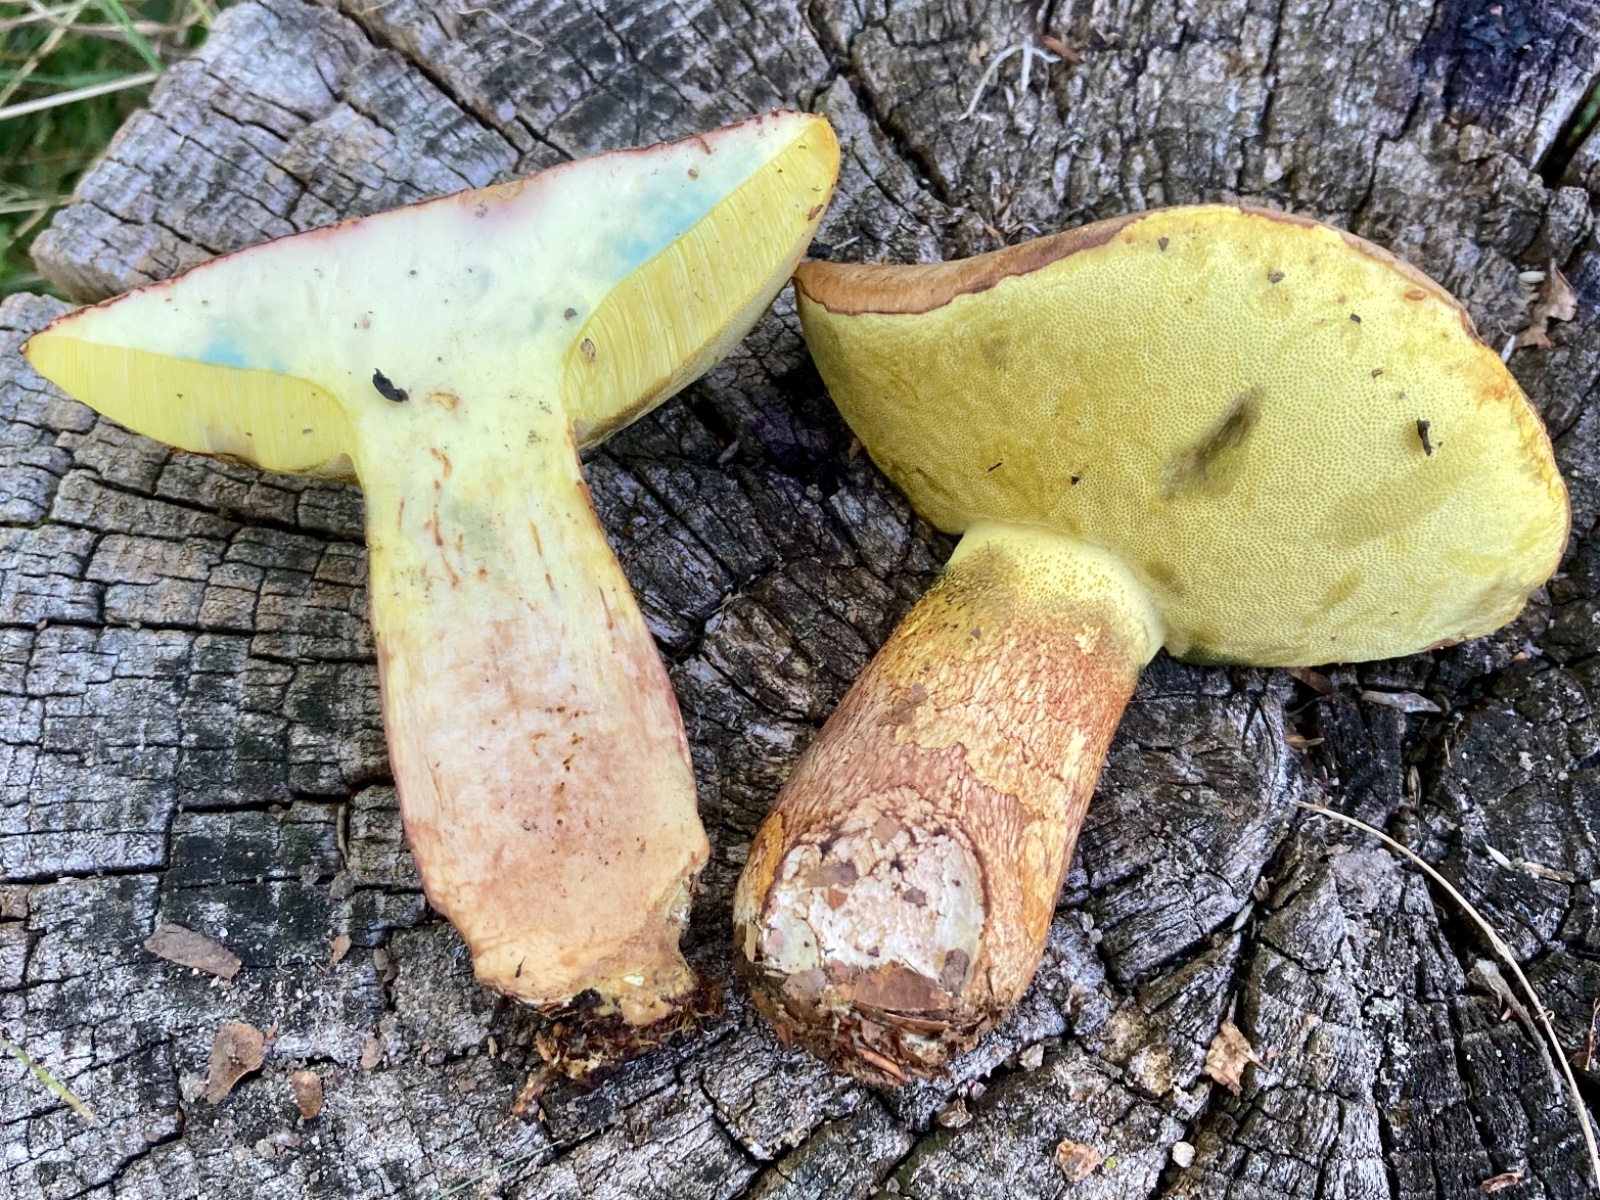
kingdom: Fungi
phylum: Basidiomycota
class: Agaricomycetes
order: Boletales
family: Boletaceae
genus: Butyriboletus
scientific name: Butyriboletus appendiculatus
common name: tenstokket rørhat
